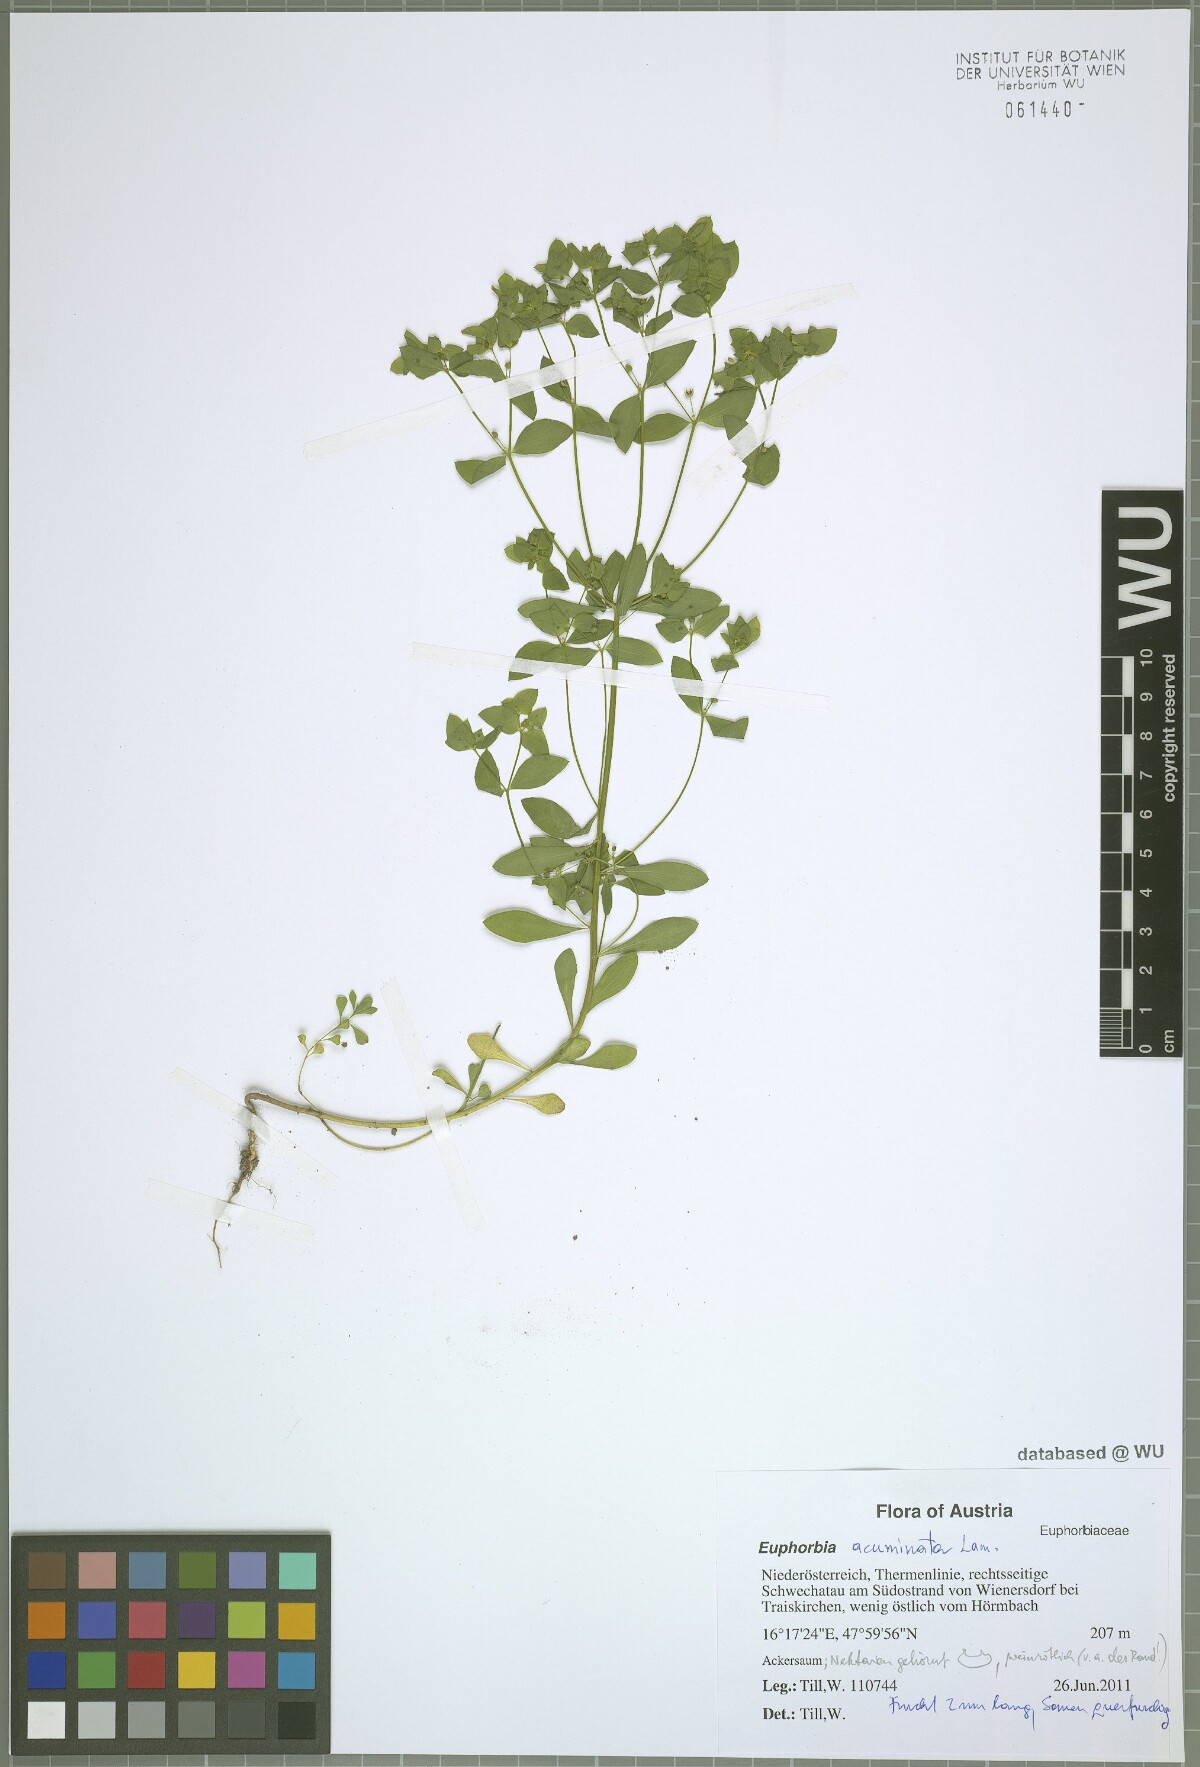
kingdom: Plantae
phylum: Tracheophyta
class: Magnoliopsida
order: Malpighiales
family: Euphorbiaceae
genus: Euphorbia
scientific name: Euphorbia falcata
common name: Sickle spurge
